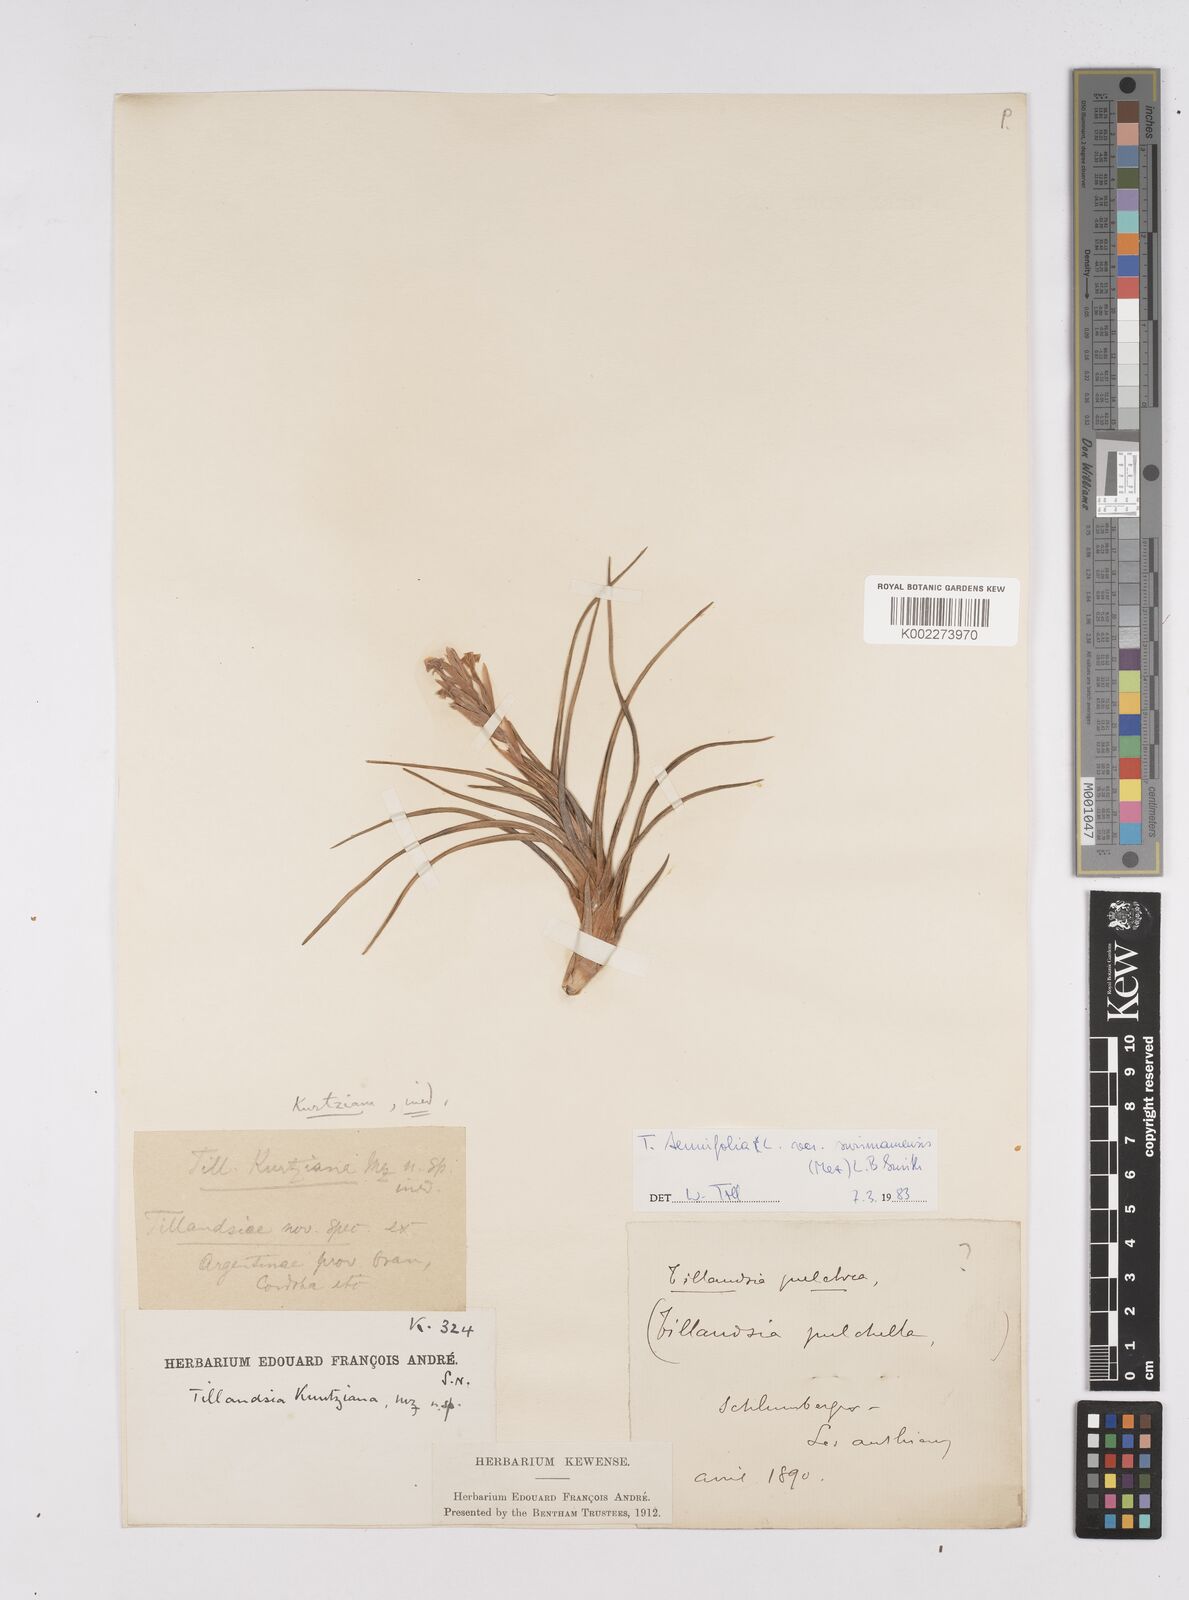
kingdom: Plantae
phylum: Tracheophyta
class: Liliopsida
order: Poales
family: Bromeliaceae
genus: Tillandsia
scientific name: Tillandsia
